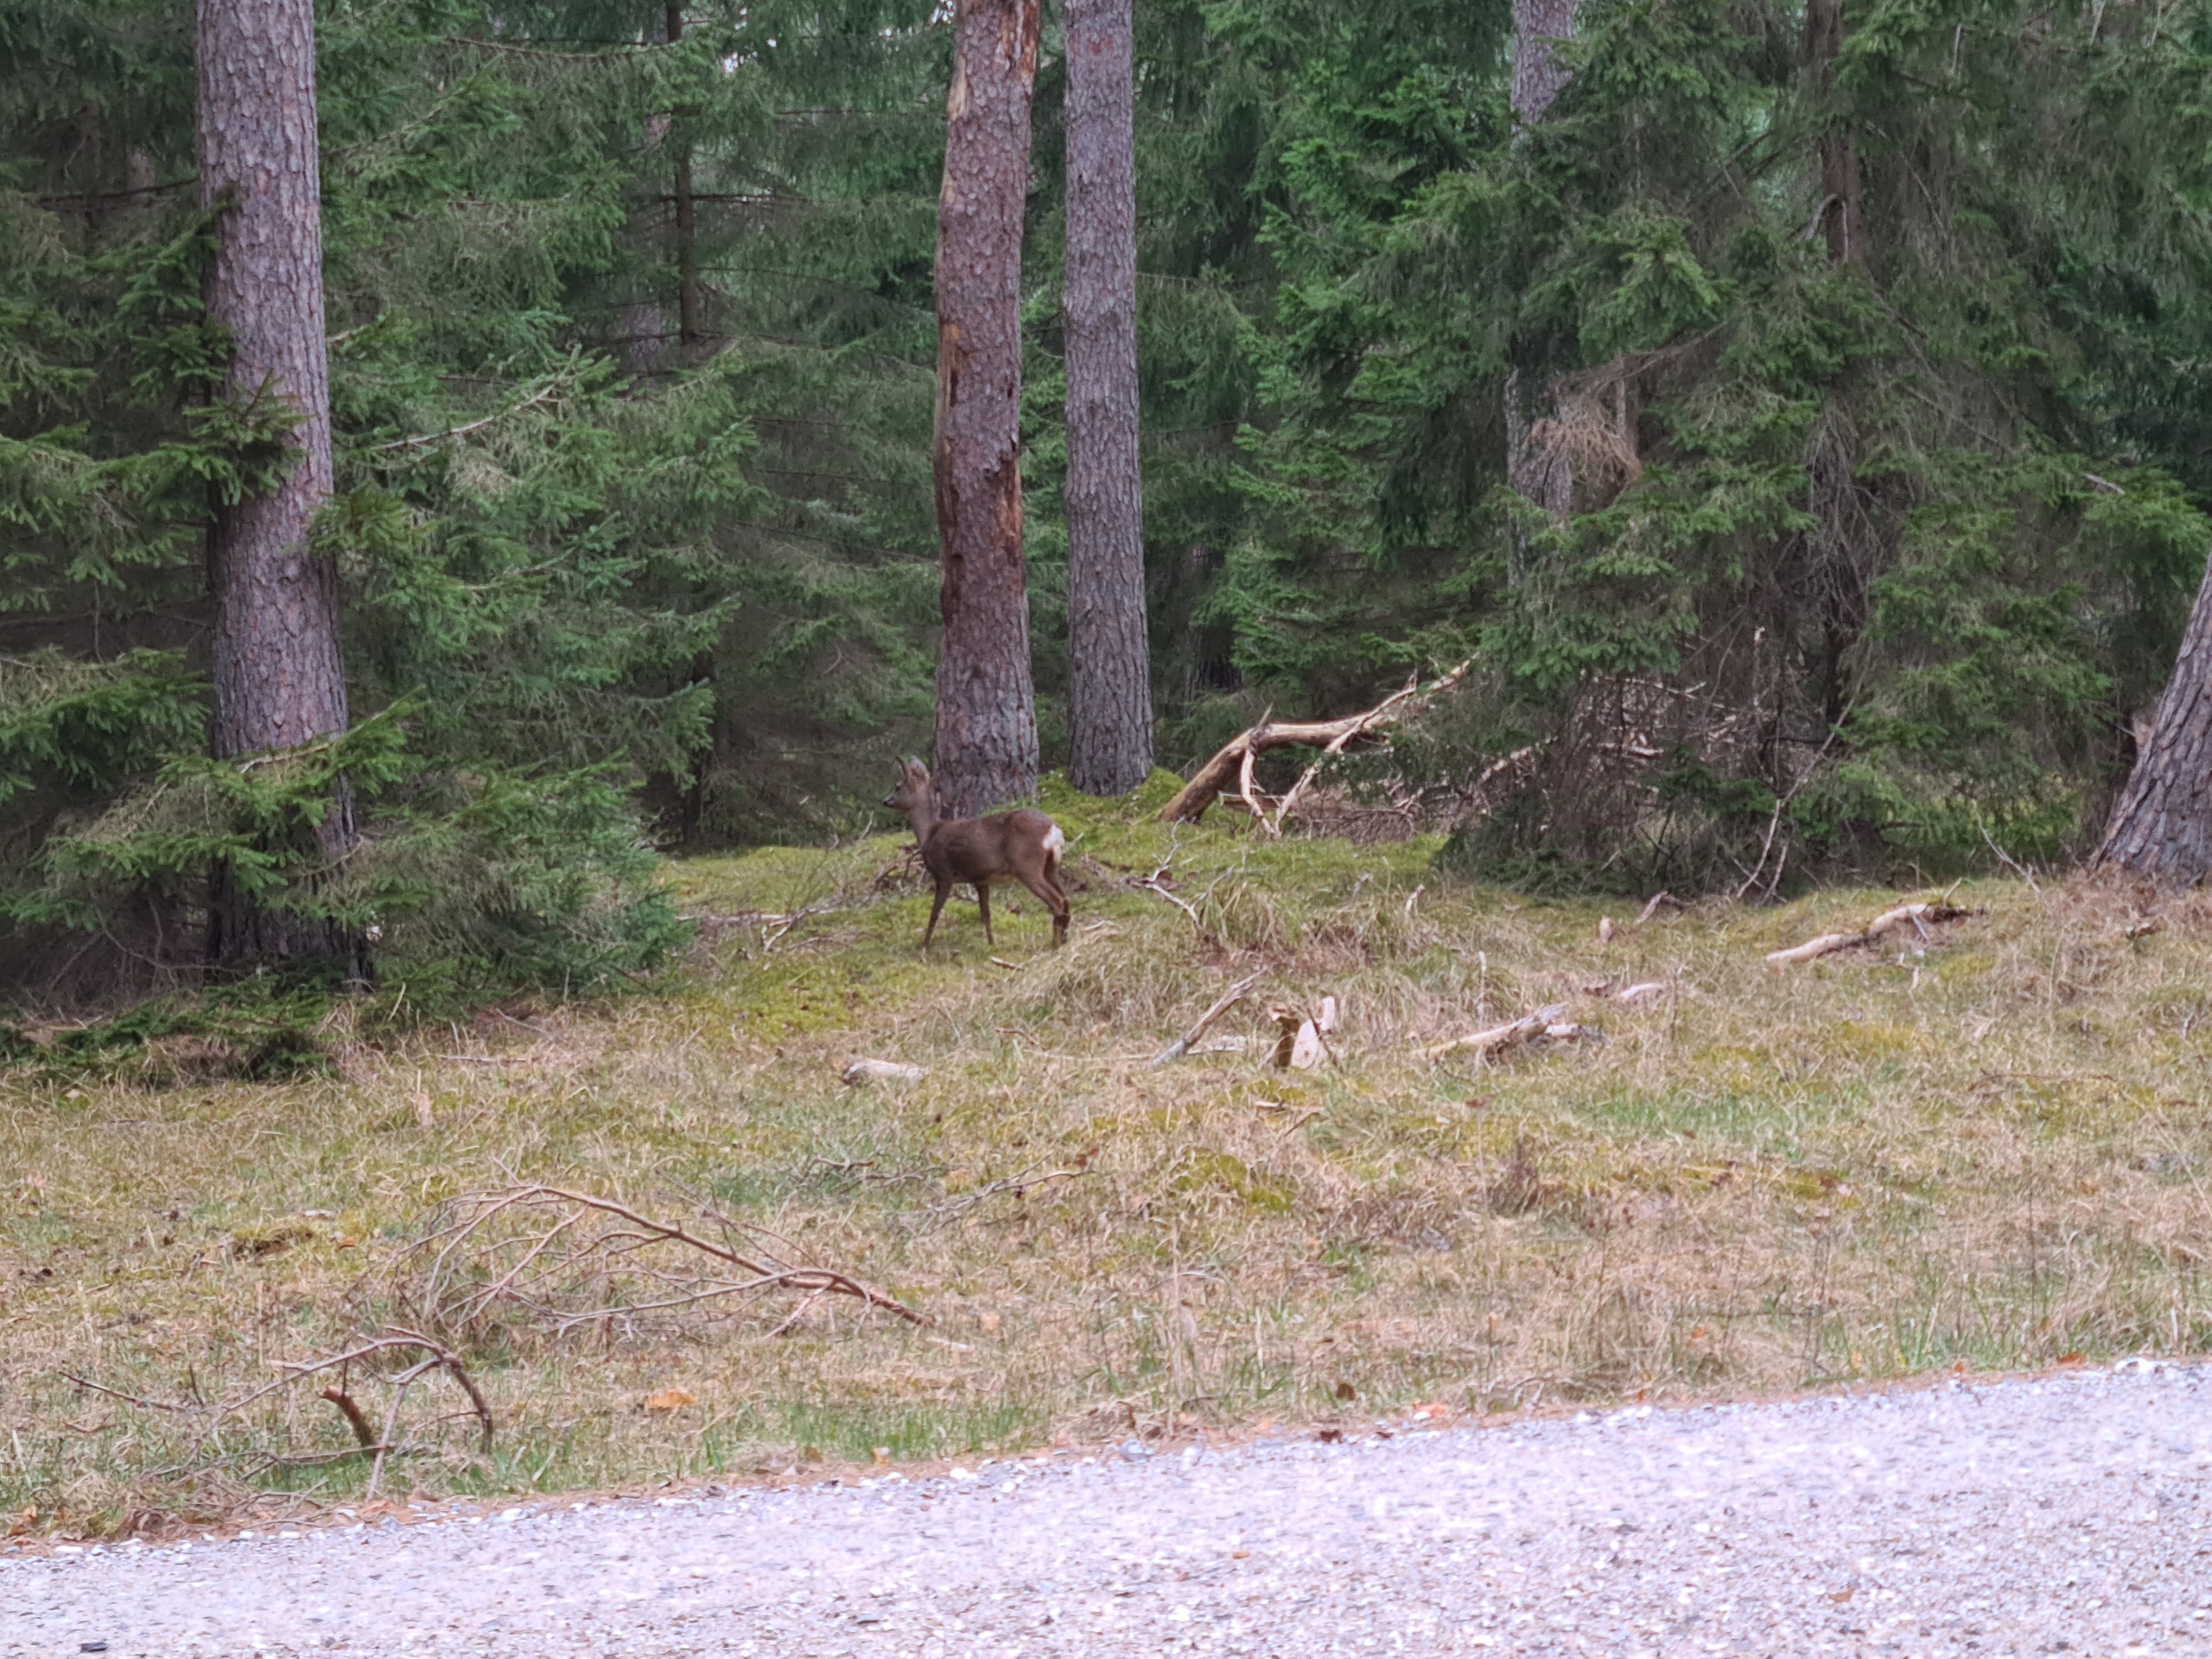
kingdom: Animalia
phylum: Chordata
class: Mammalia
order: Artiodactyla
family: Cervidae
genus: Capreolus
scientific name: Capreolus capreolus
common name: Rådyr
